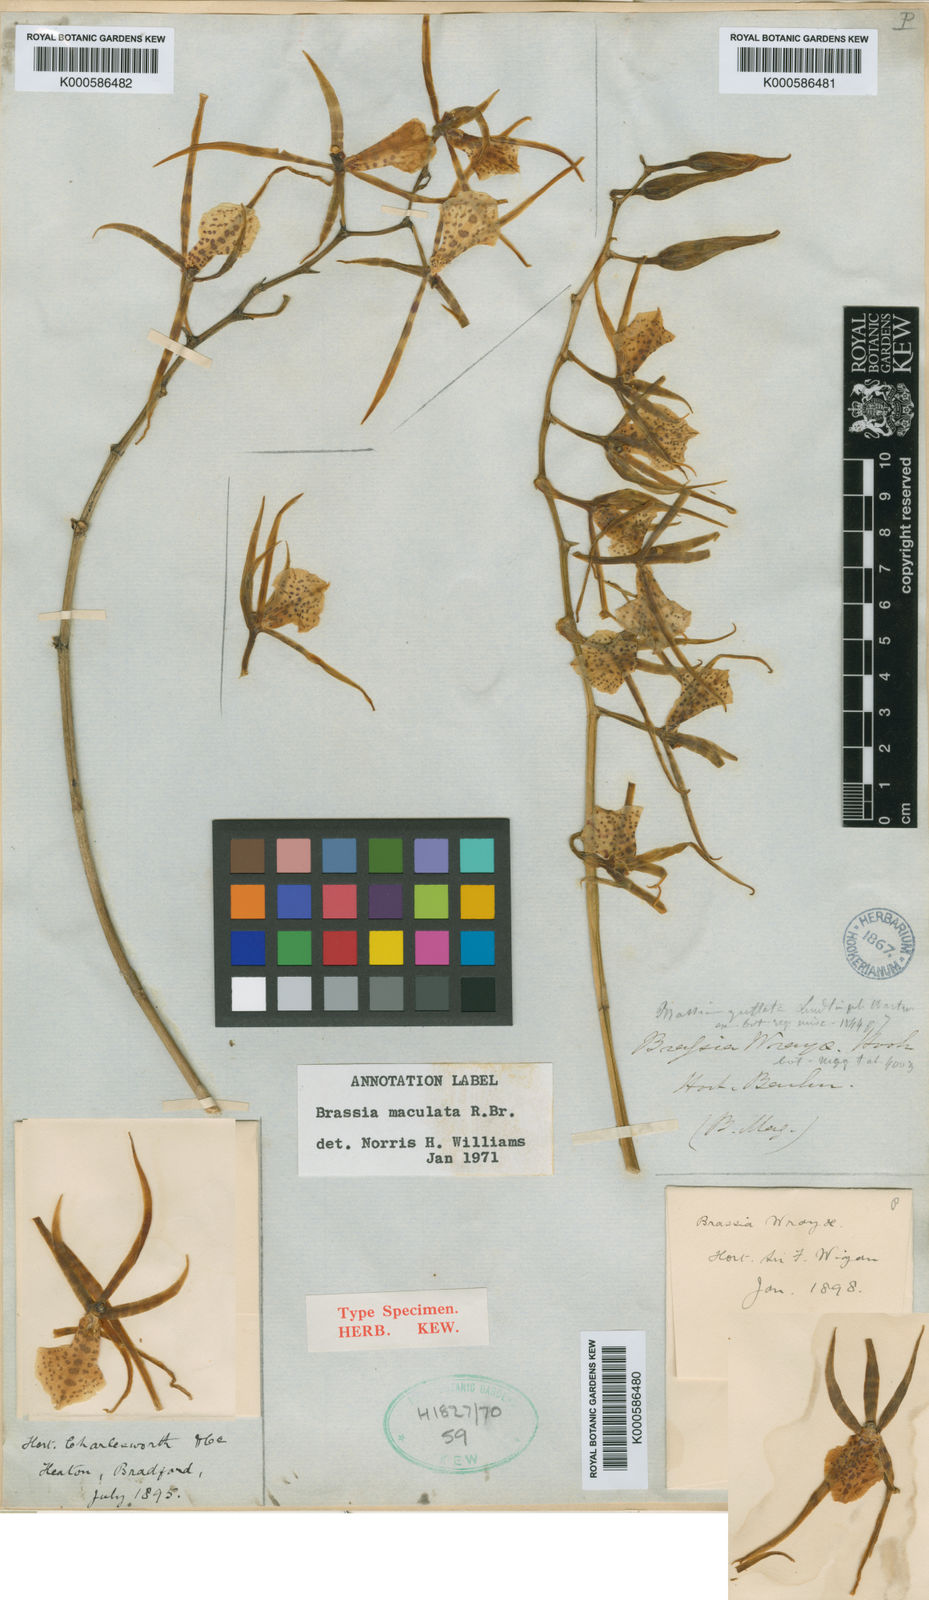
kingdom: Plantae
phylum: Tracheophyta
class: Liliopsida
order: Asparagales
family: Orchidaceae
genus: Brassia
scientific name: Brassia maculata
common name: Spotted spider orchid
